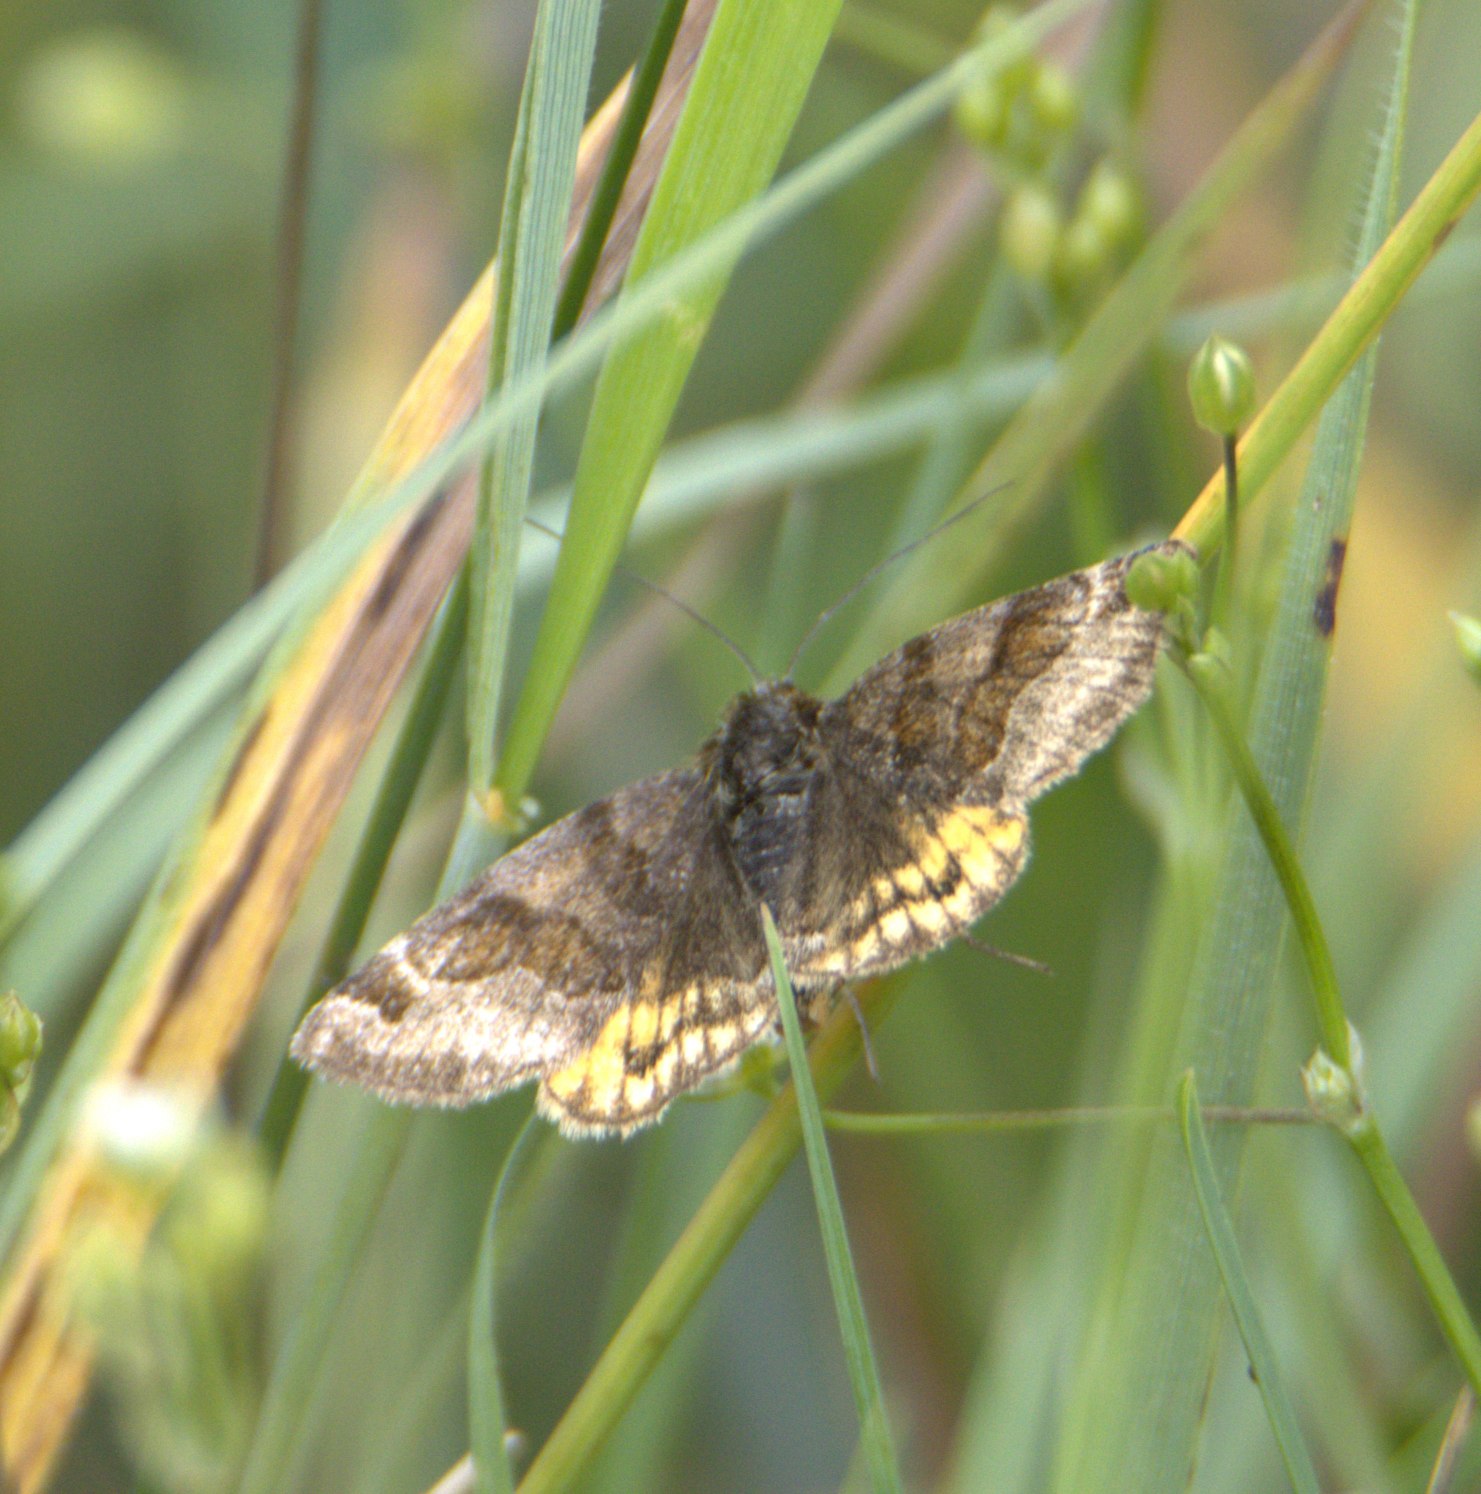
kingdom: Animalia
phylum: Arthropoda
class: Insecta
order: Lepidoptera
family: Erebidae
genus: Euclidia
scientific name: Euclidia glyphica
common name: Brun kløverugle
